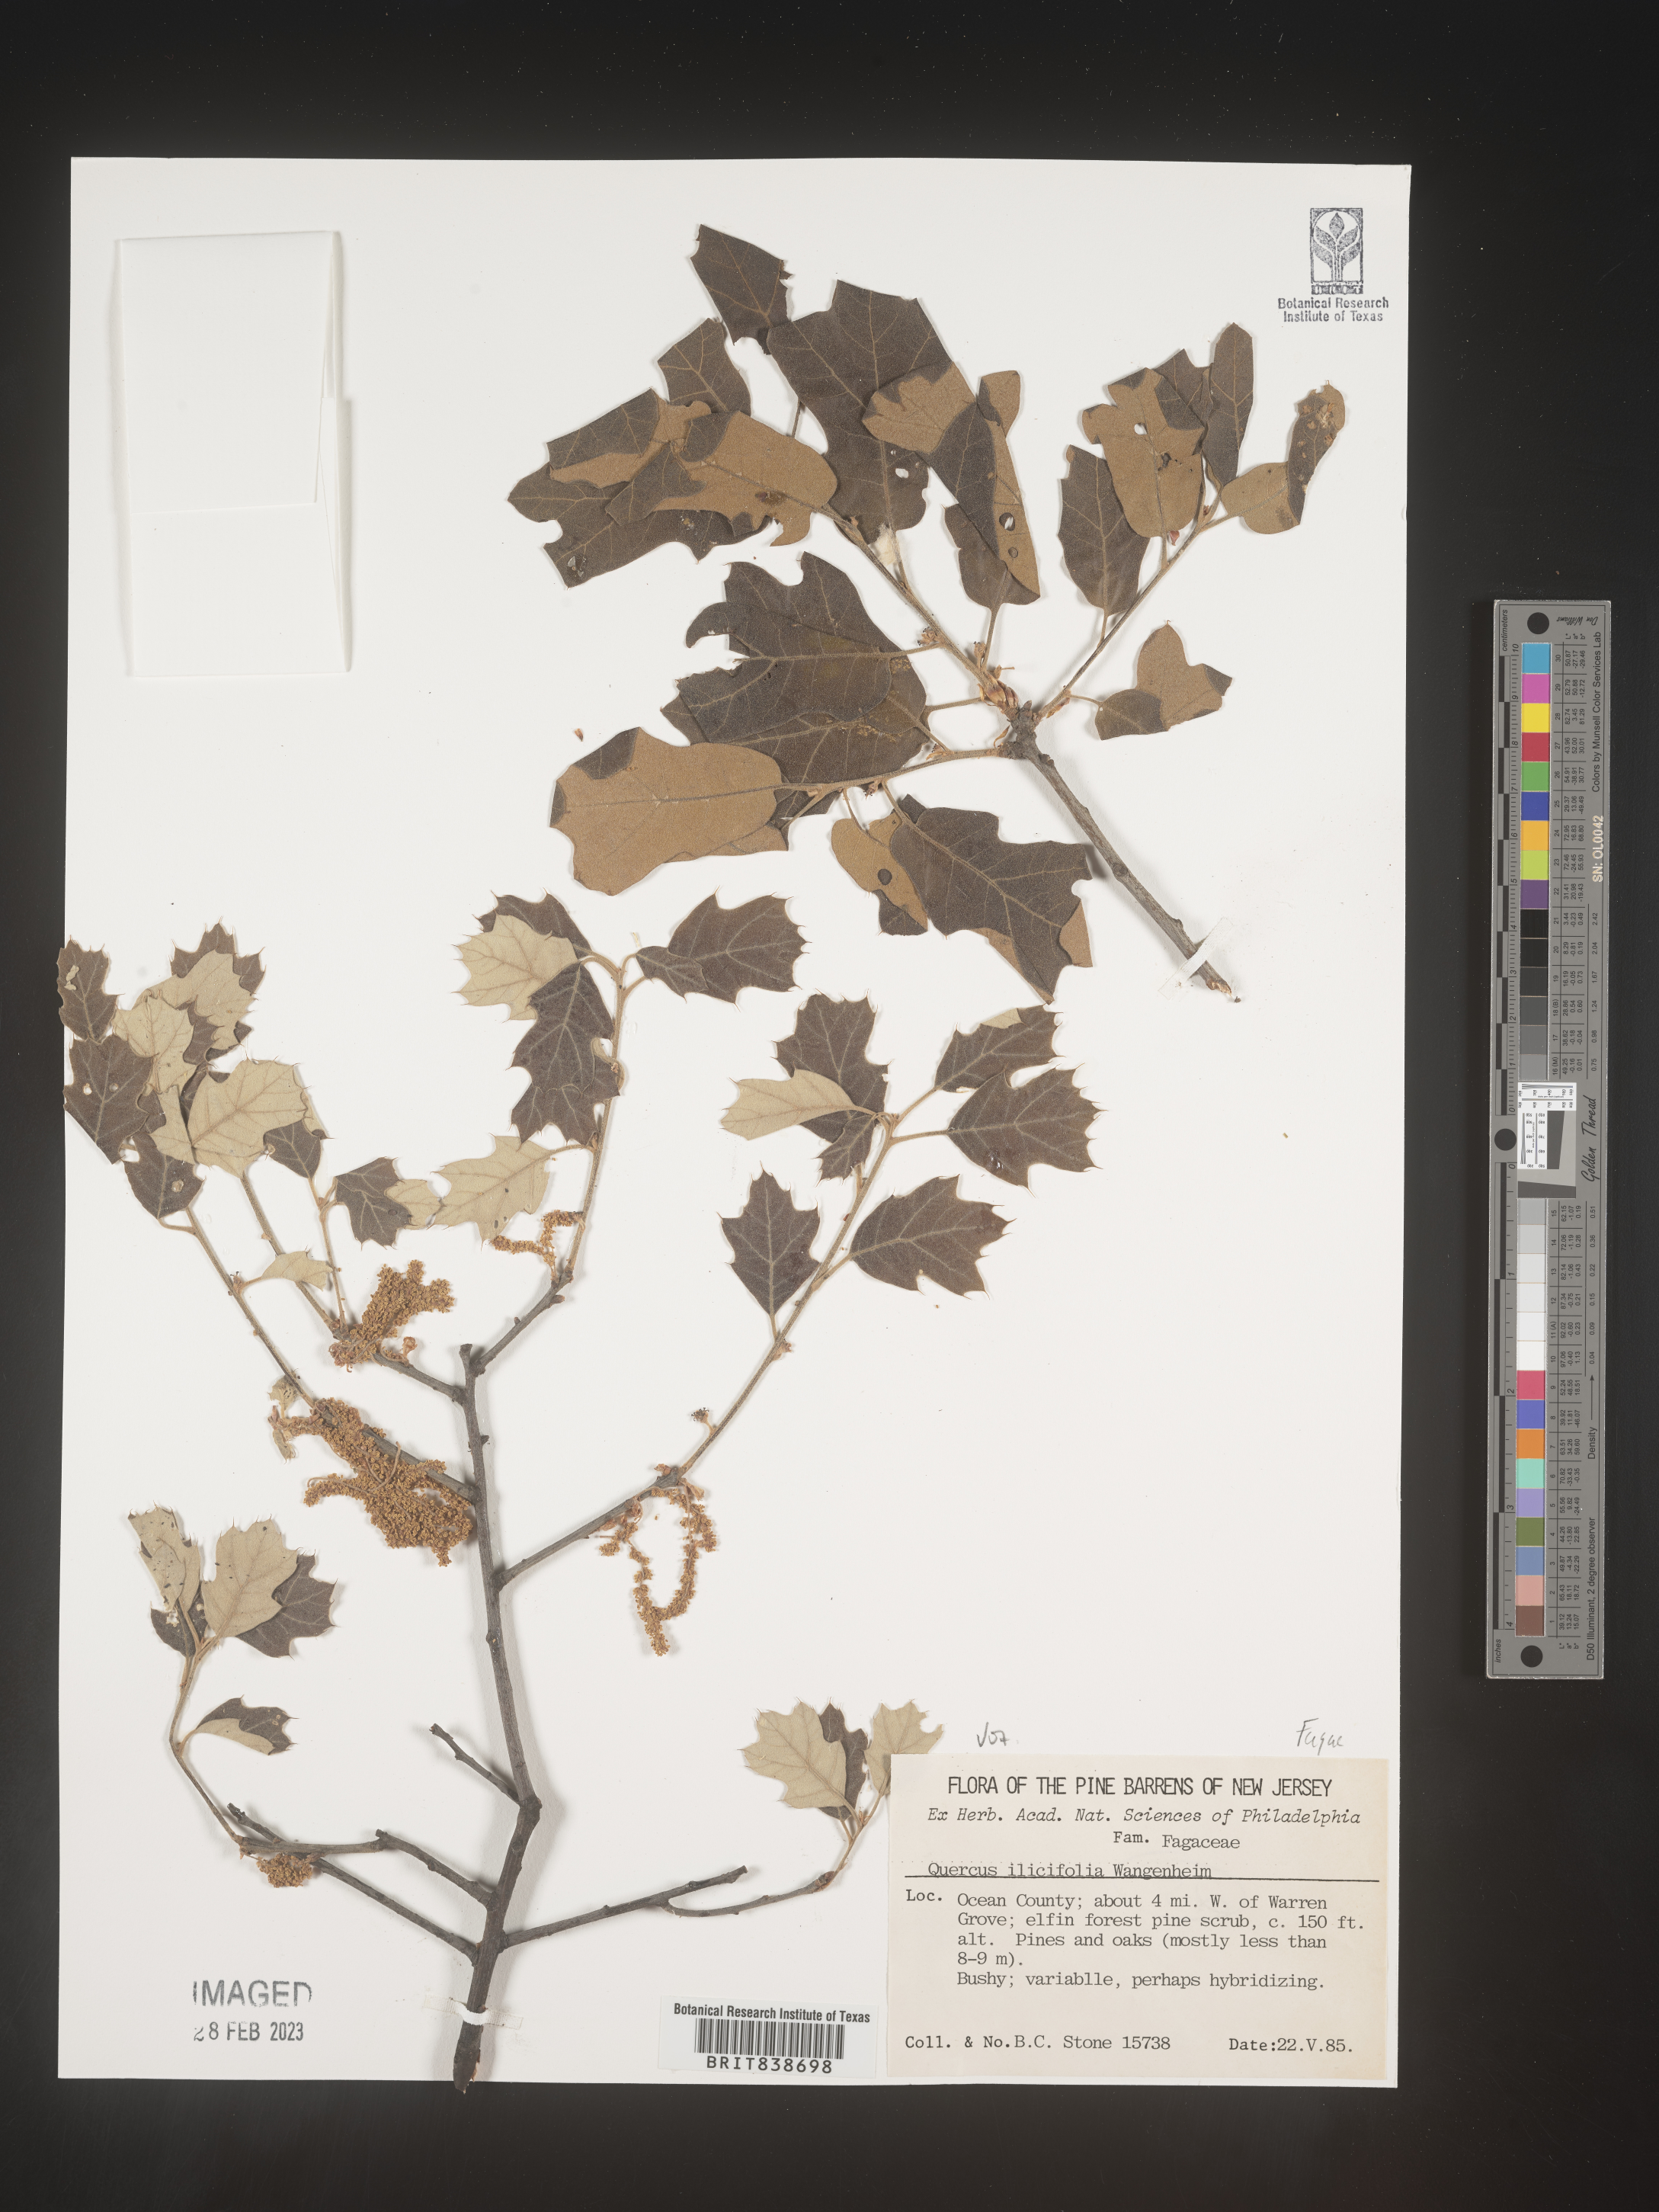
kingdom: Plantae
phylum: Tracheophyta
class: Magnoliopsida
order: Fagales
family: Fagaceae
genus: Quercus
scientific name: Quercus ilicifolia
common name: Bear oak
